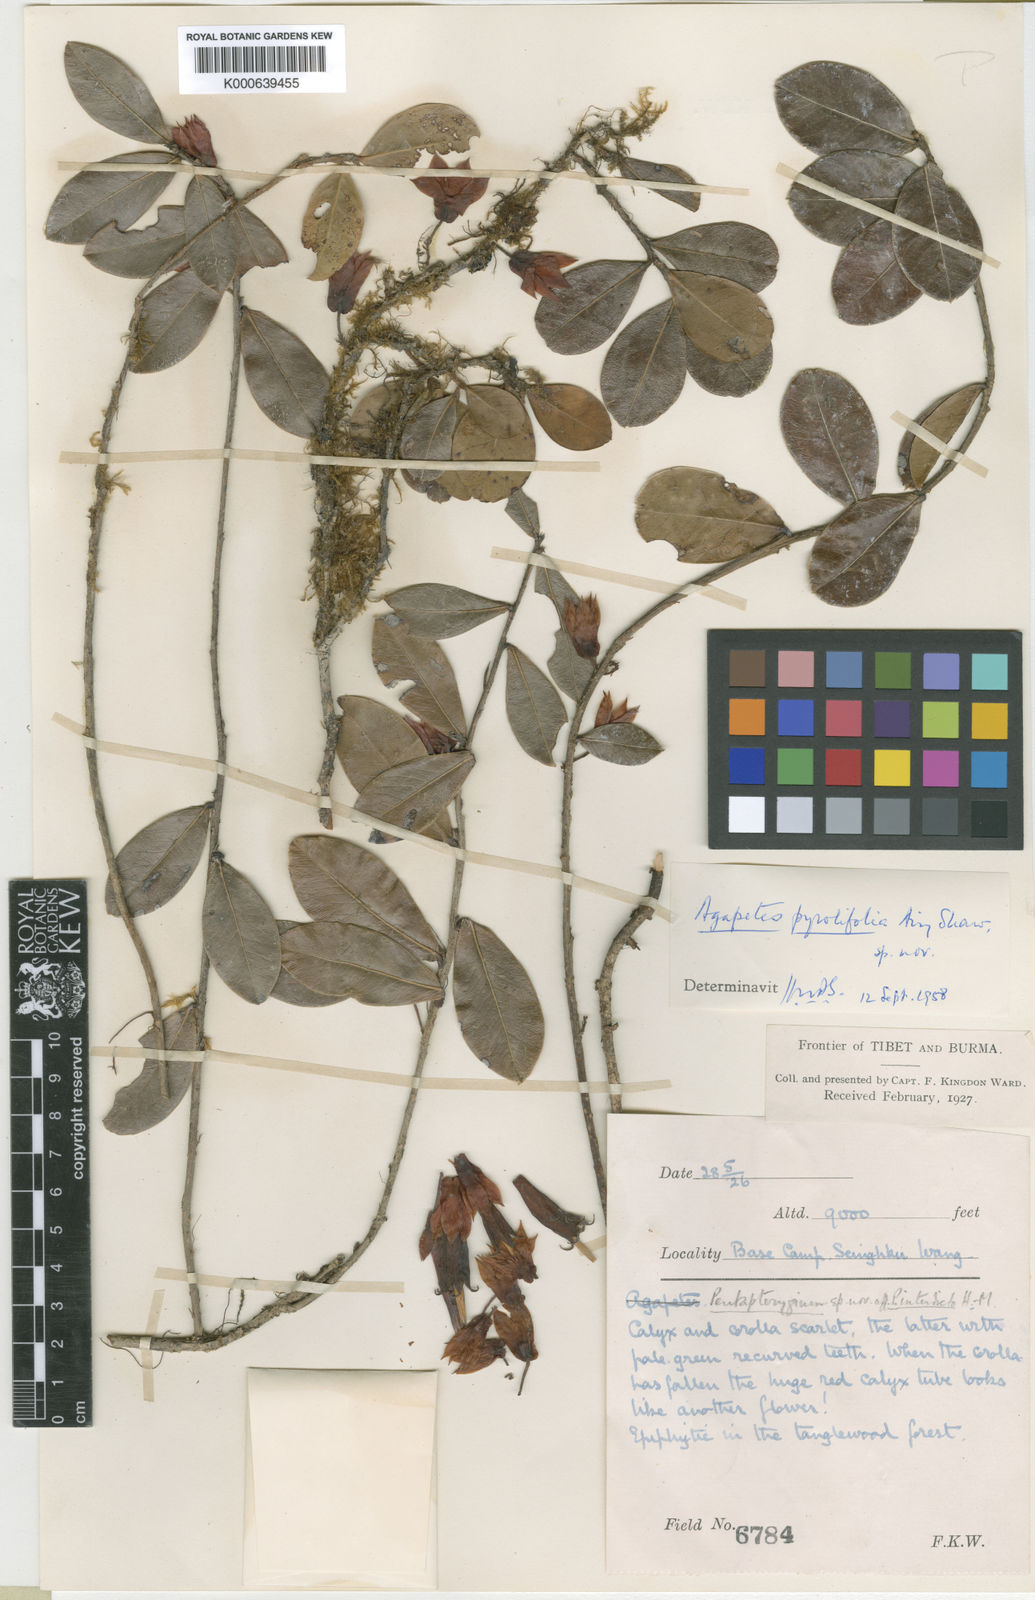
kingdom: Plantae
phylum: Tracheophyta
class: Magnoliopsida
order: Ericales
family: Ericaceae
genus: Agapetes
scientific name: Agapetes pyrolifolia
